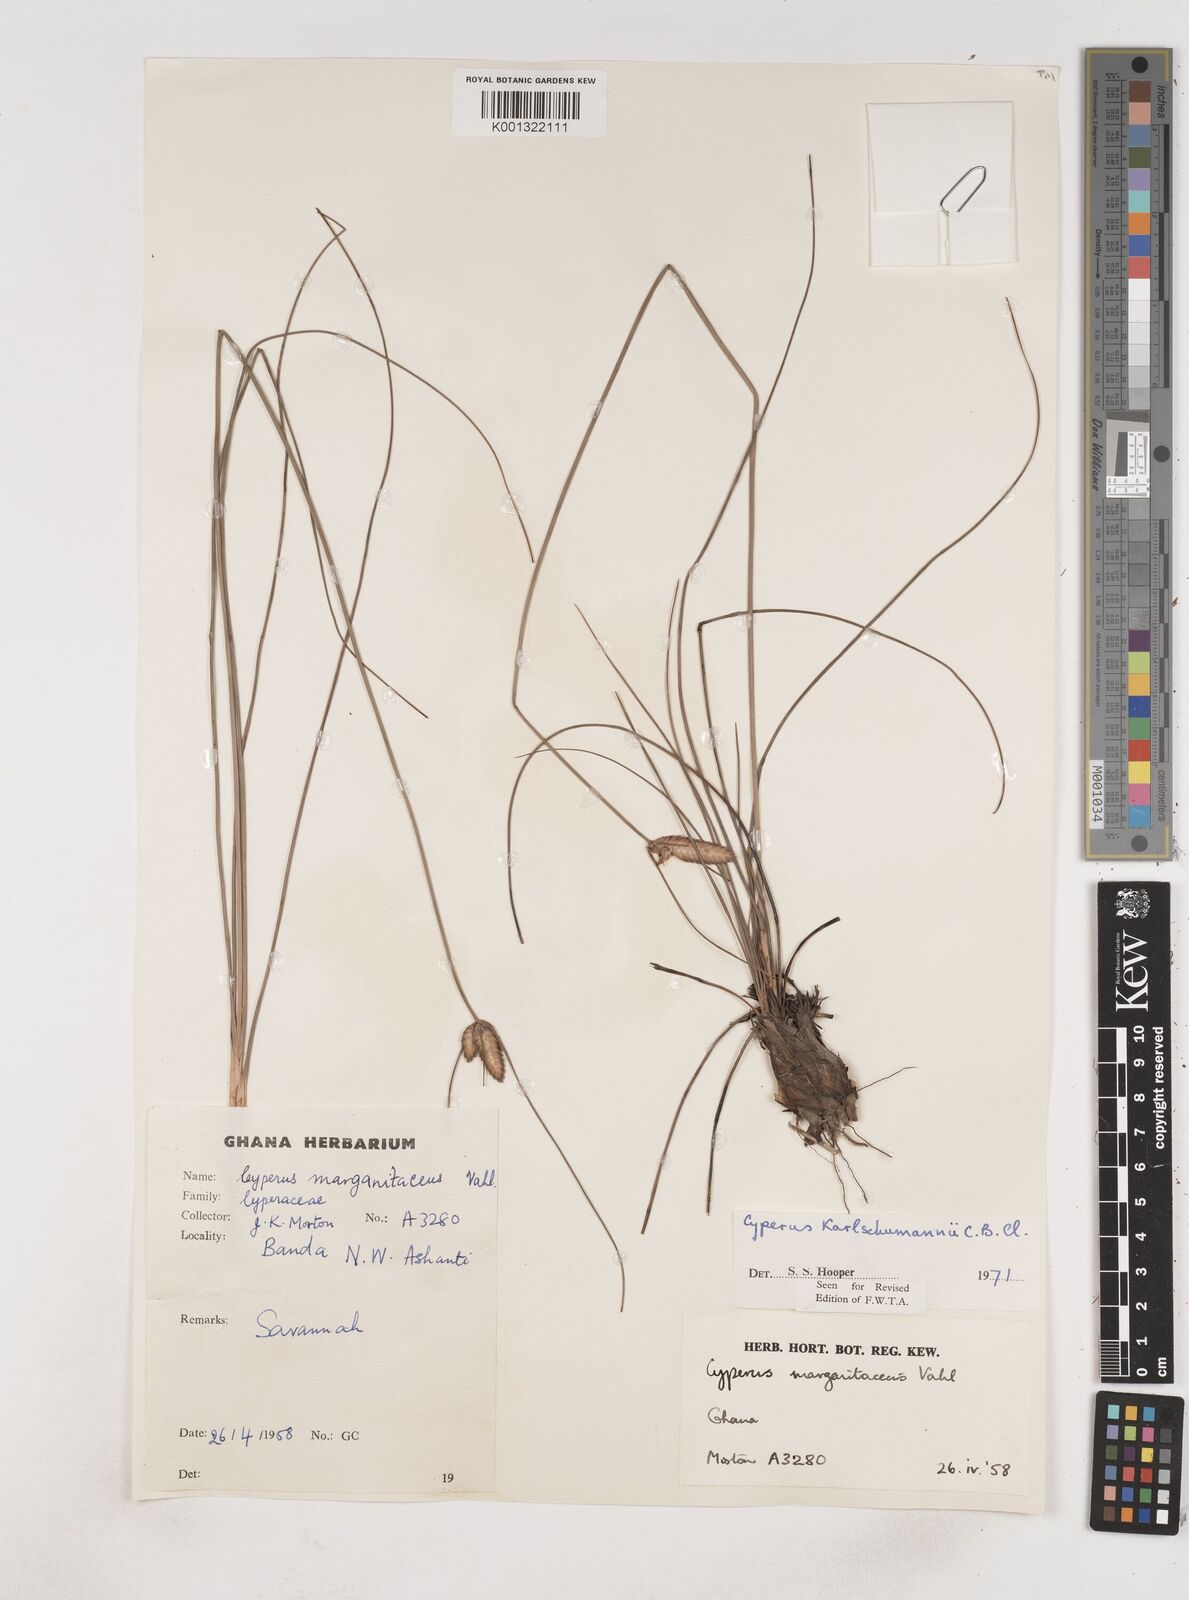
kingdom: Plantae
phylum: Tracheophyta
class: Liliopsida
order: Poales
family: Cyperaceae
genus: Cyperus
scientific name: Cyperus karlschumannii
